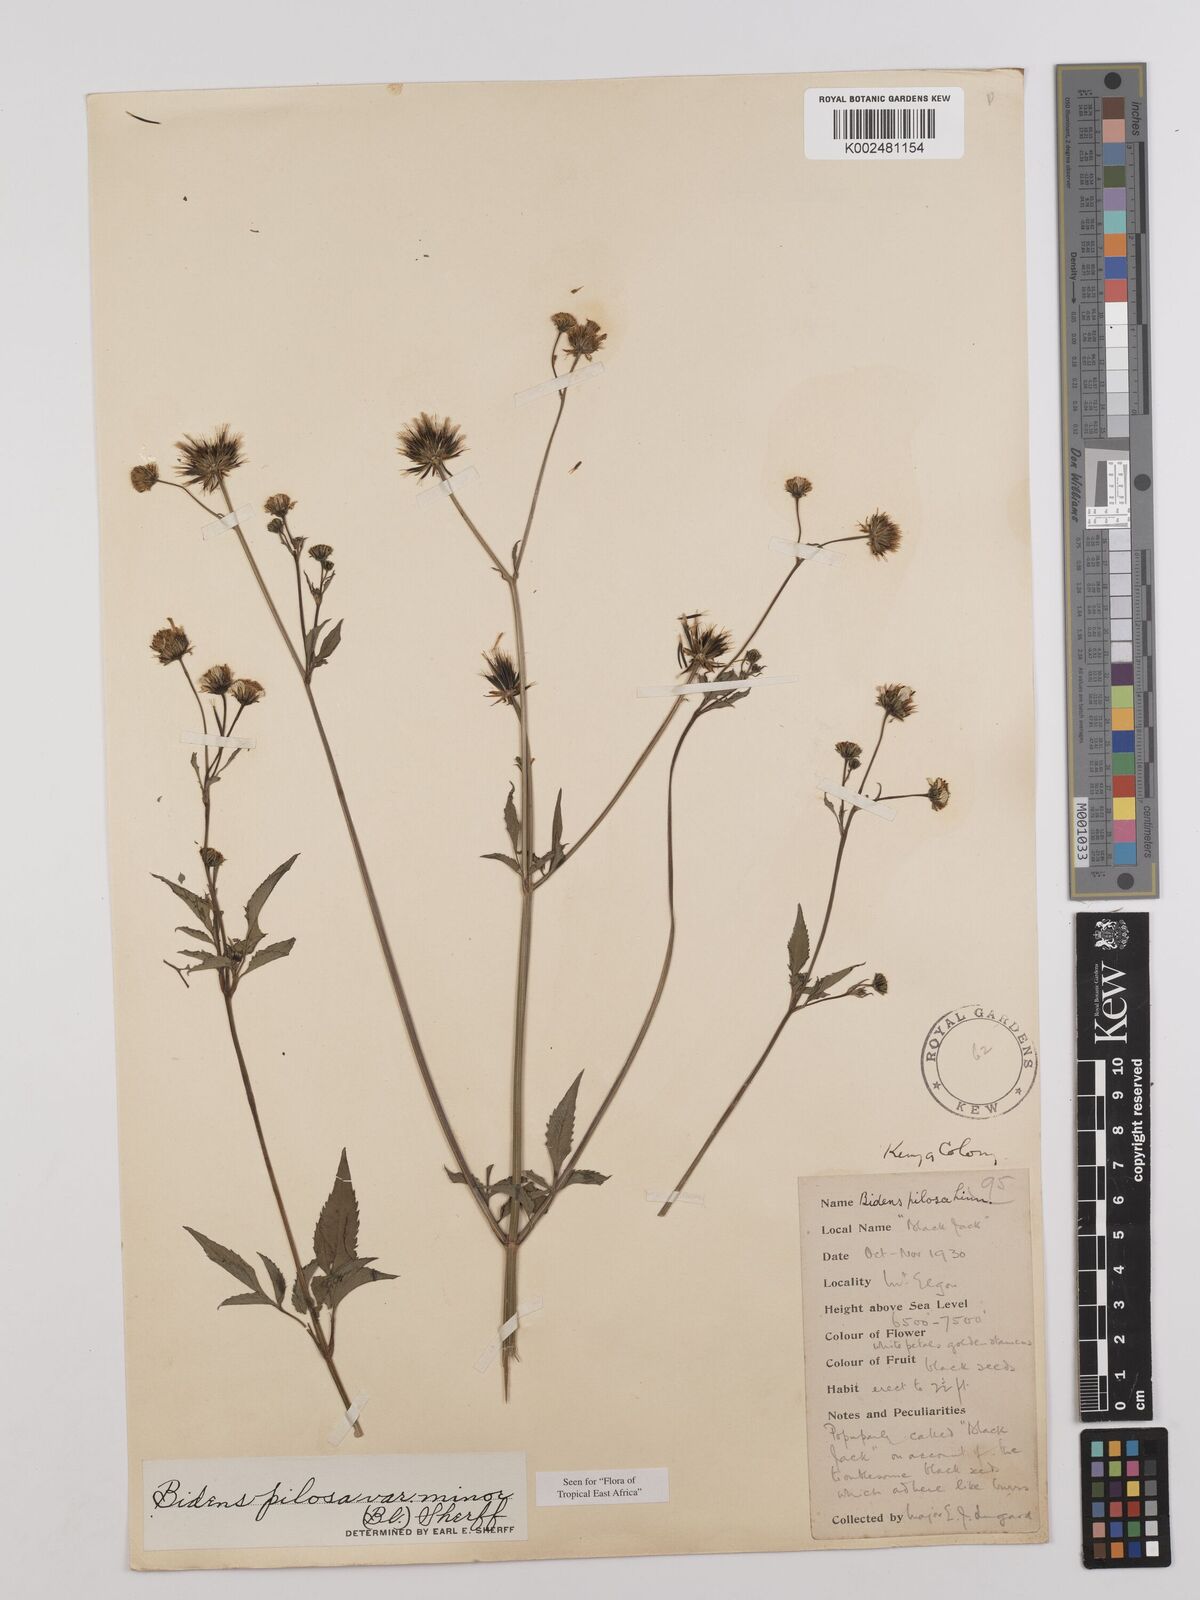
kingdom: Plantae
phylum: Tracheophyta
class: Magnoliopsida
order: Asterales
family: Asteraceae
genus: Bidens
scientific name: Bidens pilosa
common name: Black-jack
